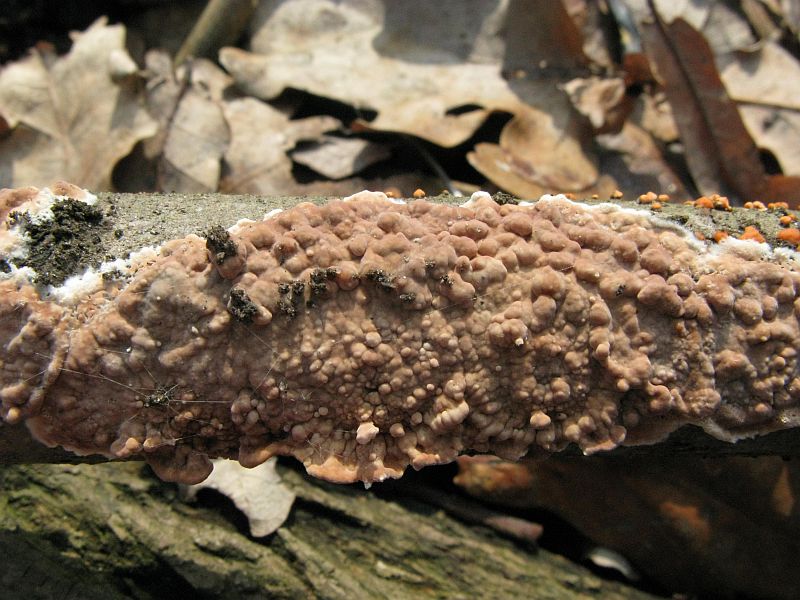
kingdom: Fungi
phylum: Basidiomycota
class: Agaricomycetes
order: Agaricales
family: Physalacriaceae
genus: Cylindrobasidium
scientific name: Cylindrobasidium evolvens
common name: sprækkehinde
